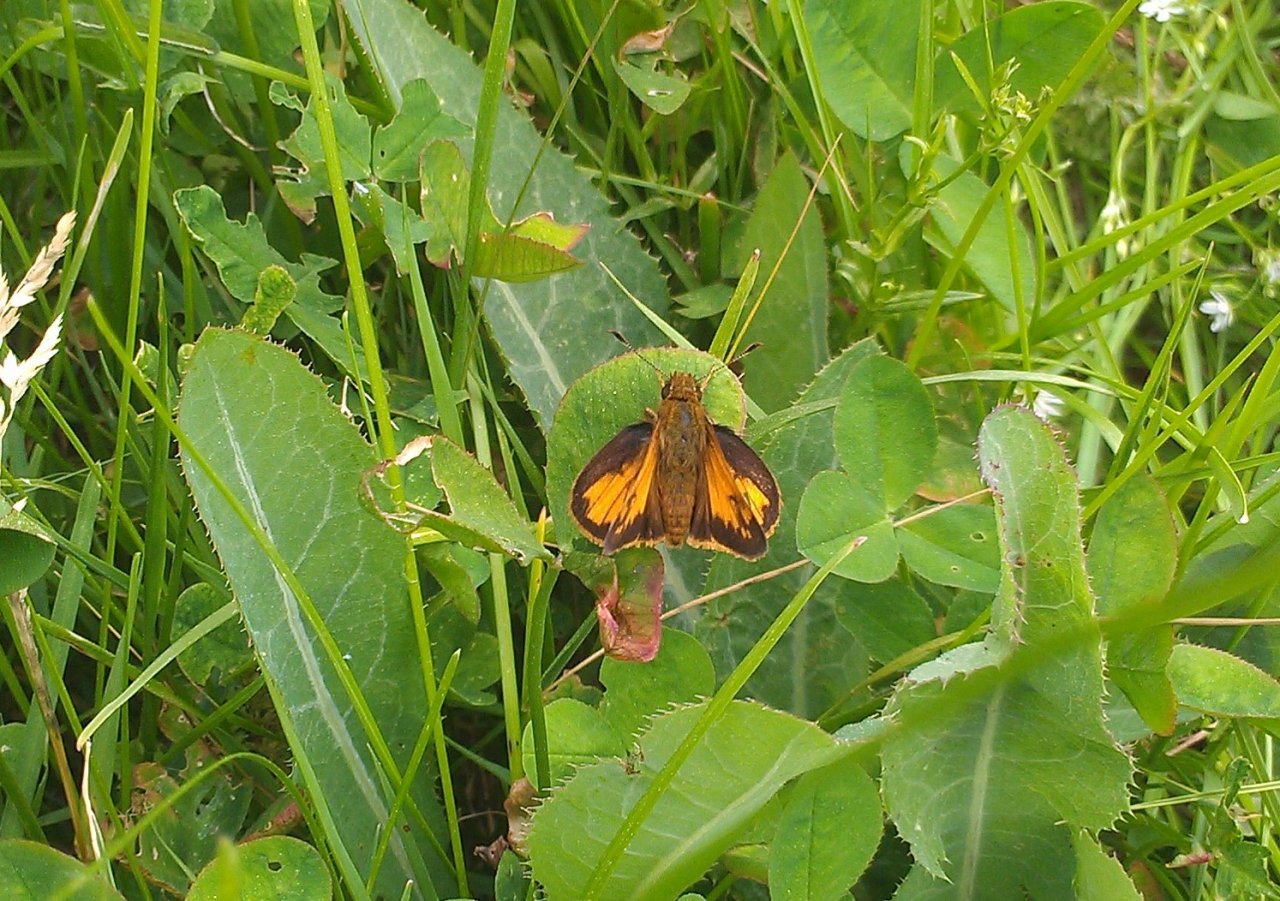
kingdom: Animalia
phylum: Arthropoda
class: Insecta
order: Lepidoptera
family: Hesperiidae
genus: Lon
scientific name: Lon hobomok
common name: Hobomok Skipper
